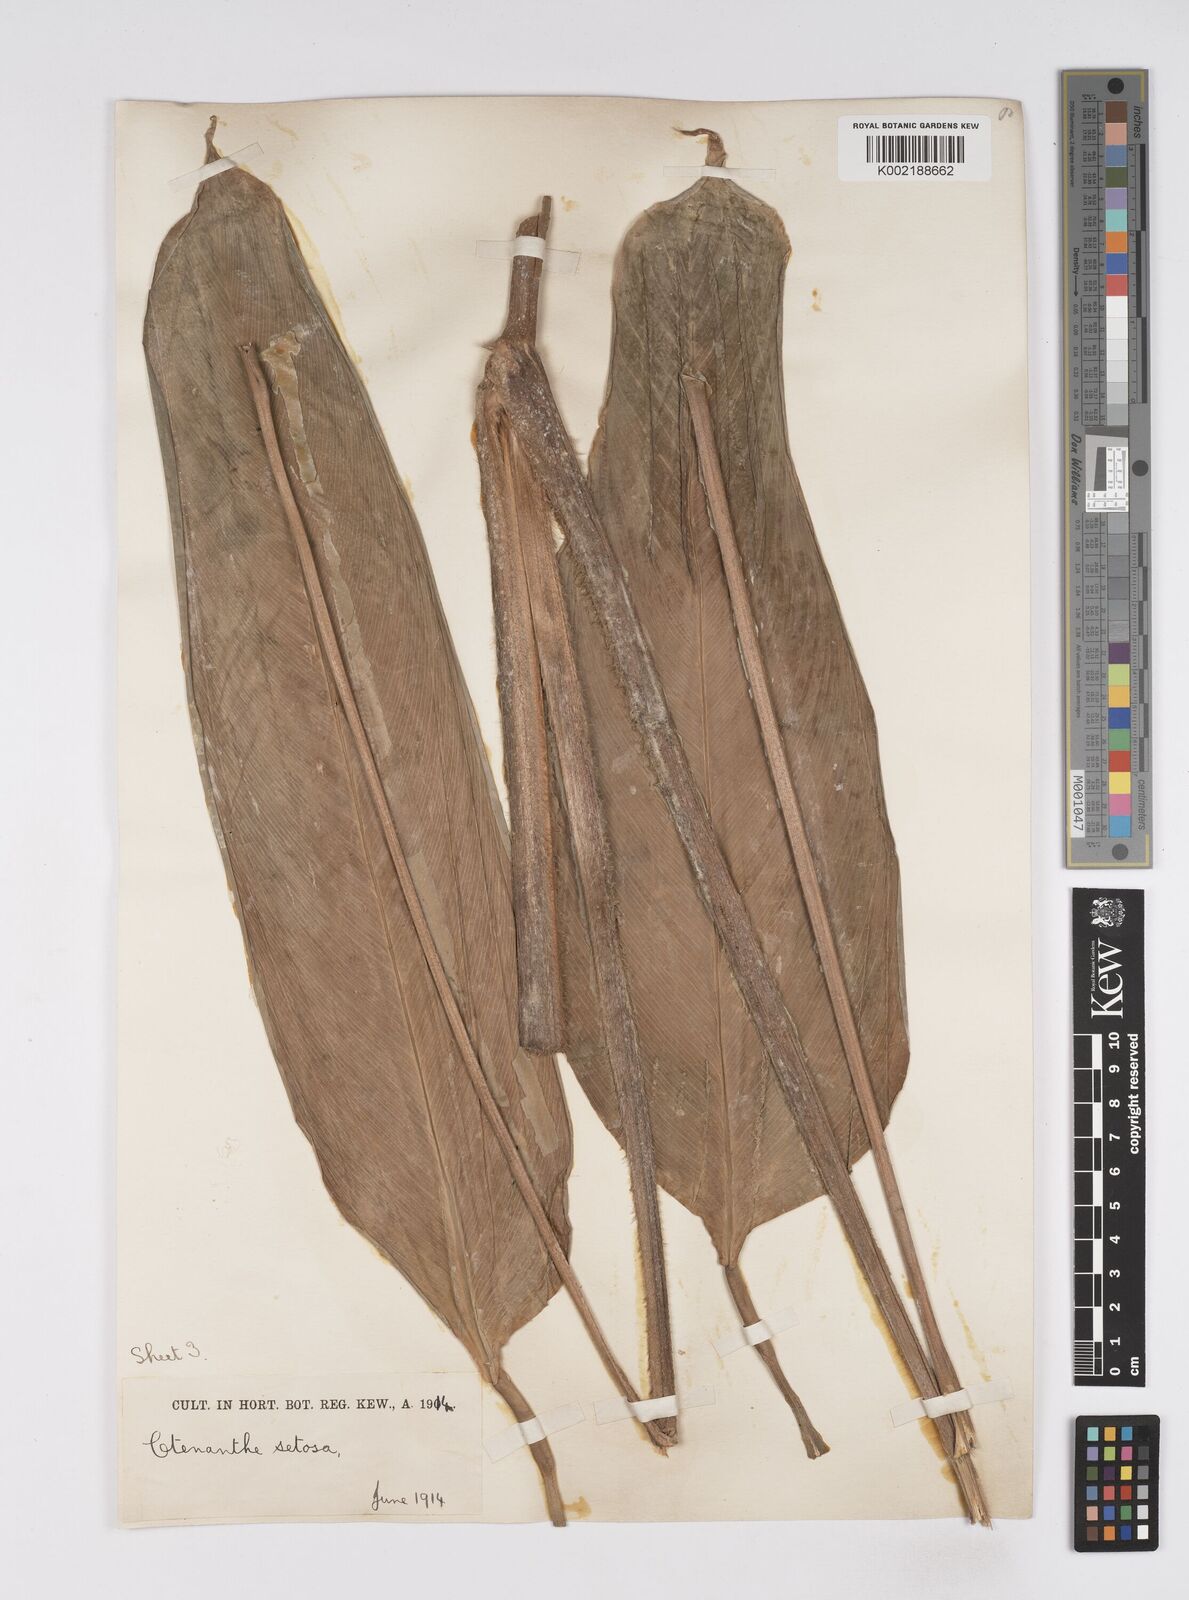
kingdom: Plantae
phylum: Tracheophyta
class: Liliopsida
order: Zingiberales
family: Marantaceae
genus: Ctenanthe
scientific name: Ctenanthe
